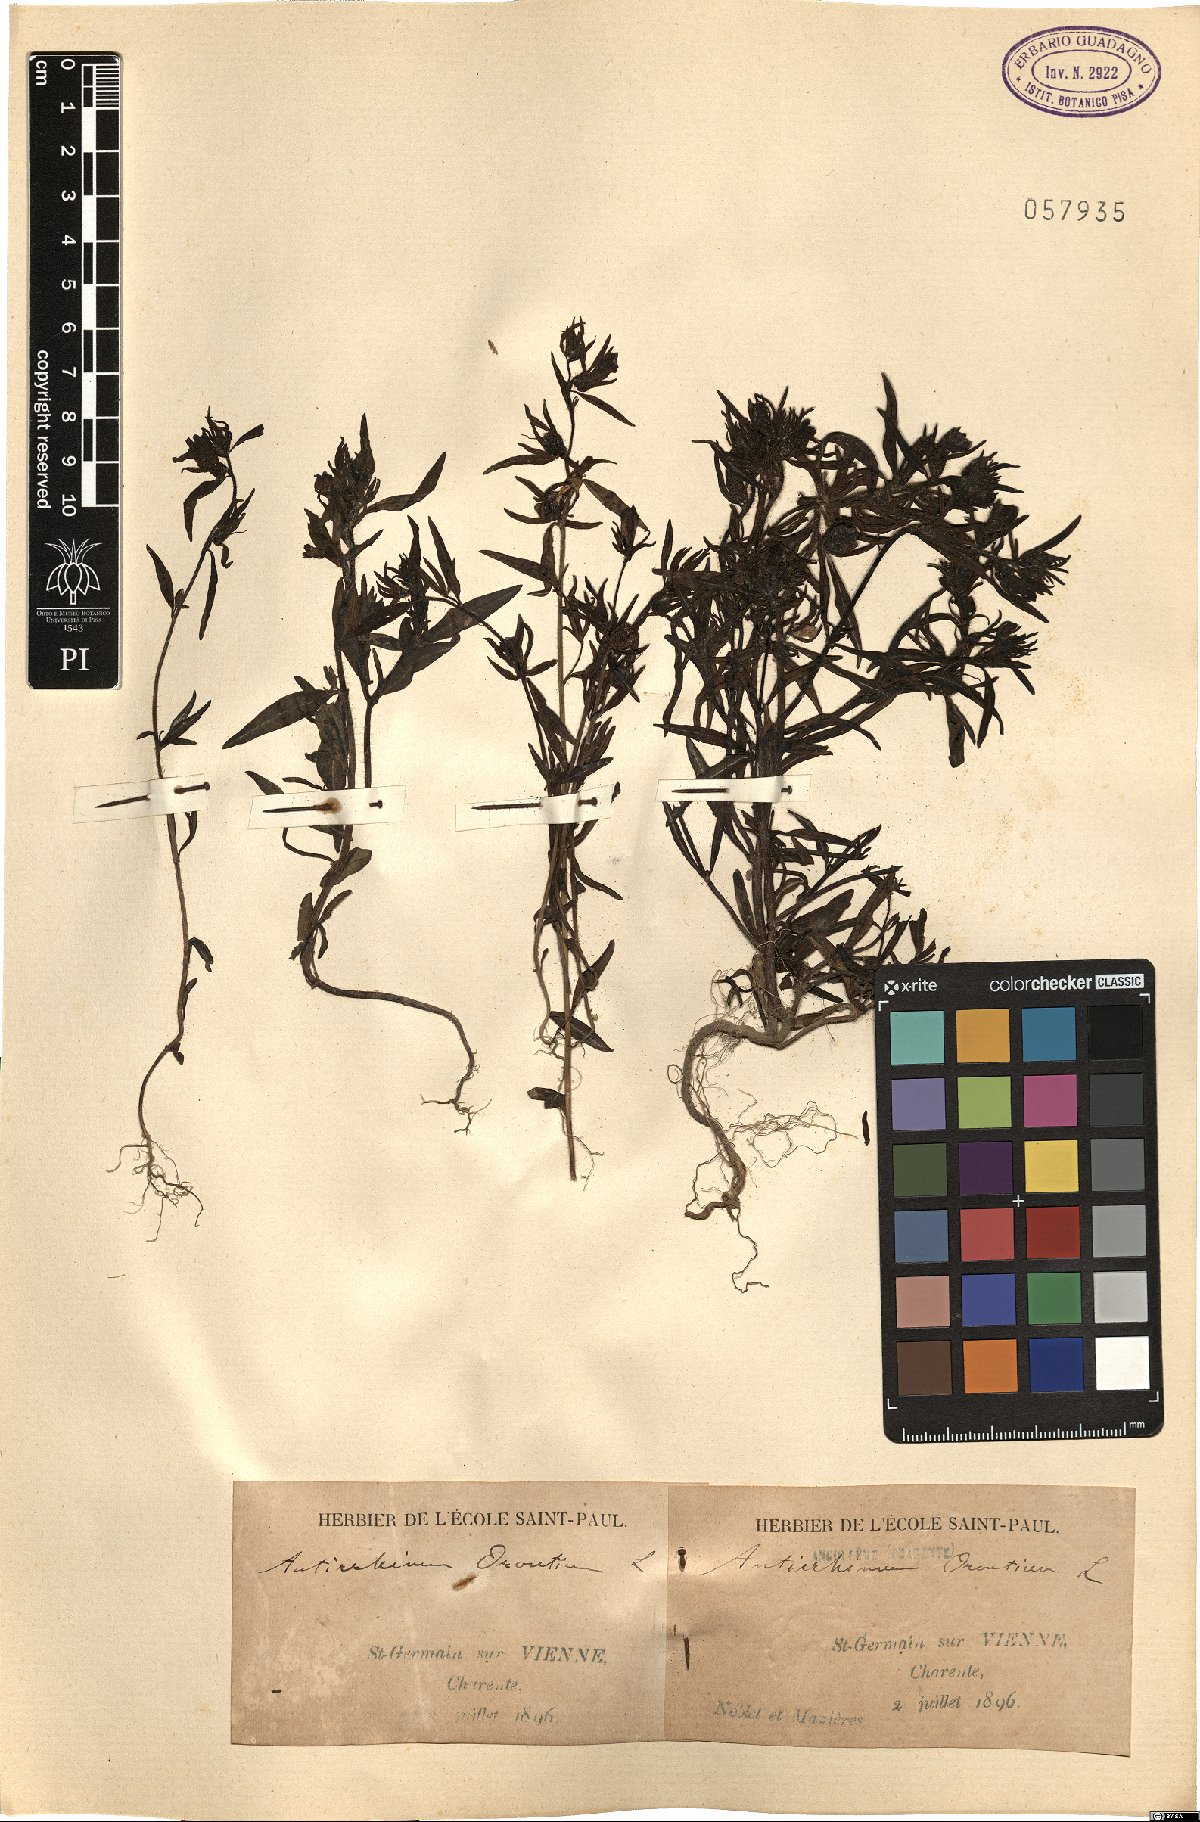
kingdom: Plantae
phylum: Tracheophyta
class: Magnoliopsida
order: Lamiales
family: Plantaginaceae
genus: Misopates
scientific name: Misopates orontium
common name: Weasel's-snout
